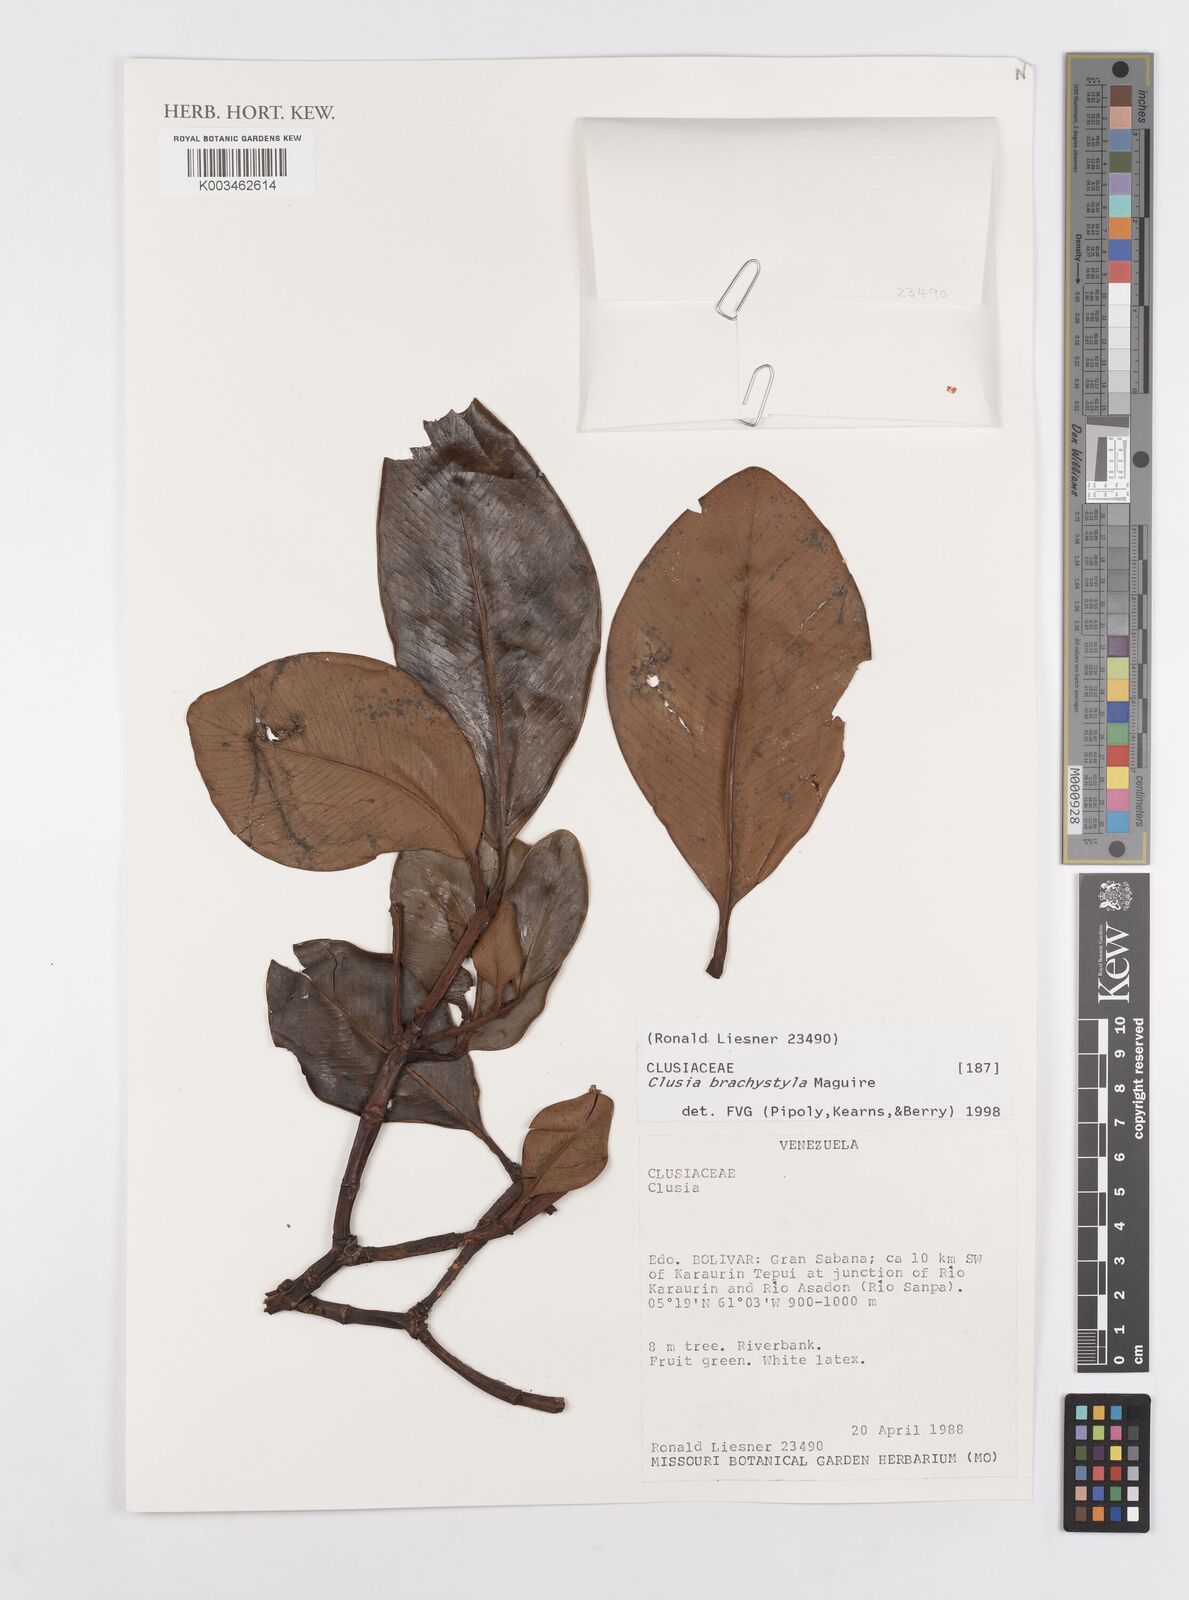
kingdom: Plantae
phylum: Tracheophyta
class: Magnoliopsida
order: Malpighiales
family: Clusiaceae
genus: Clusia
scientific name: Clusia brachystyla
